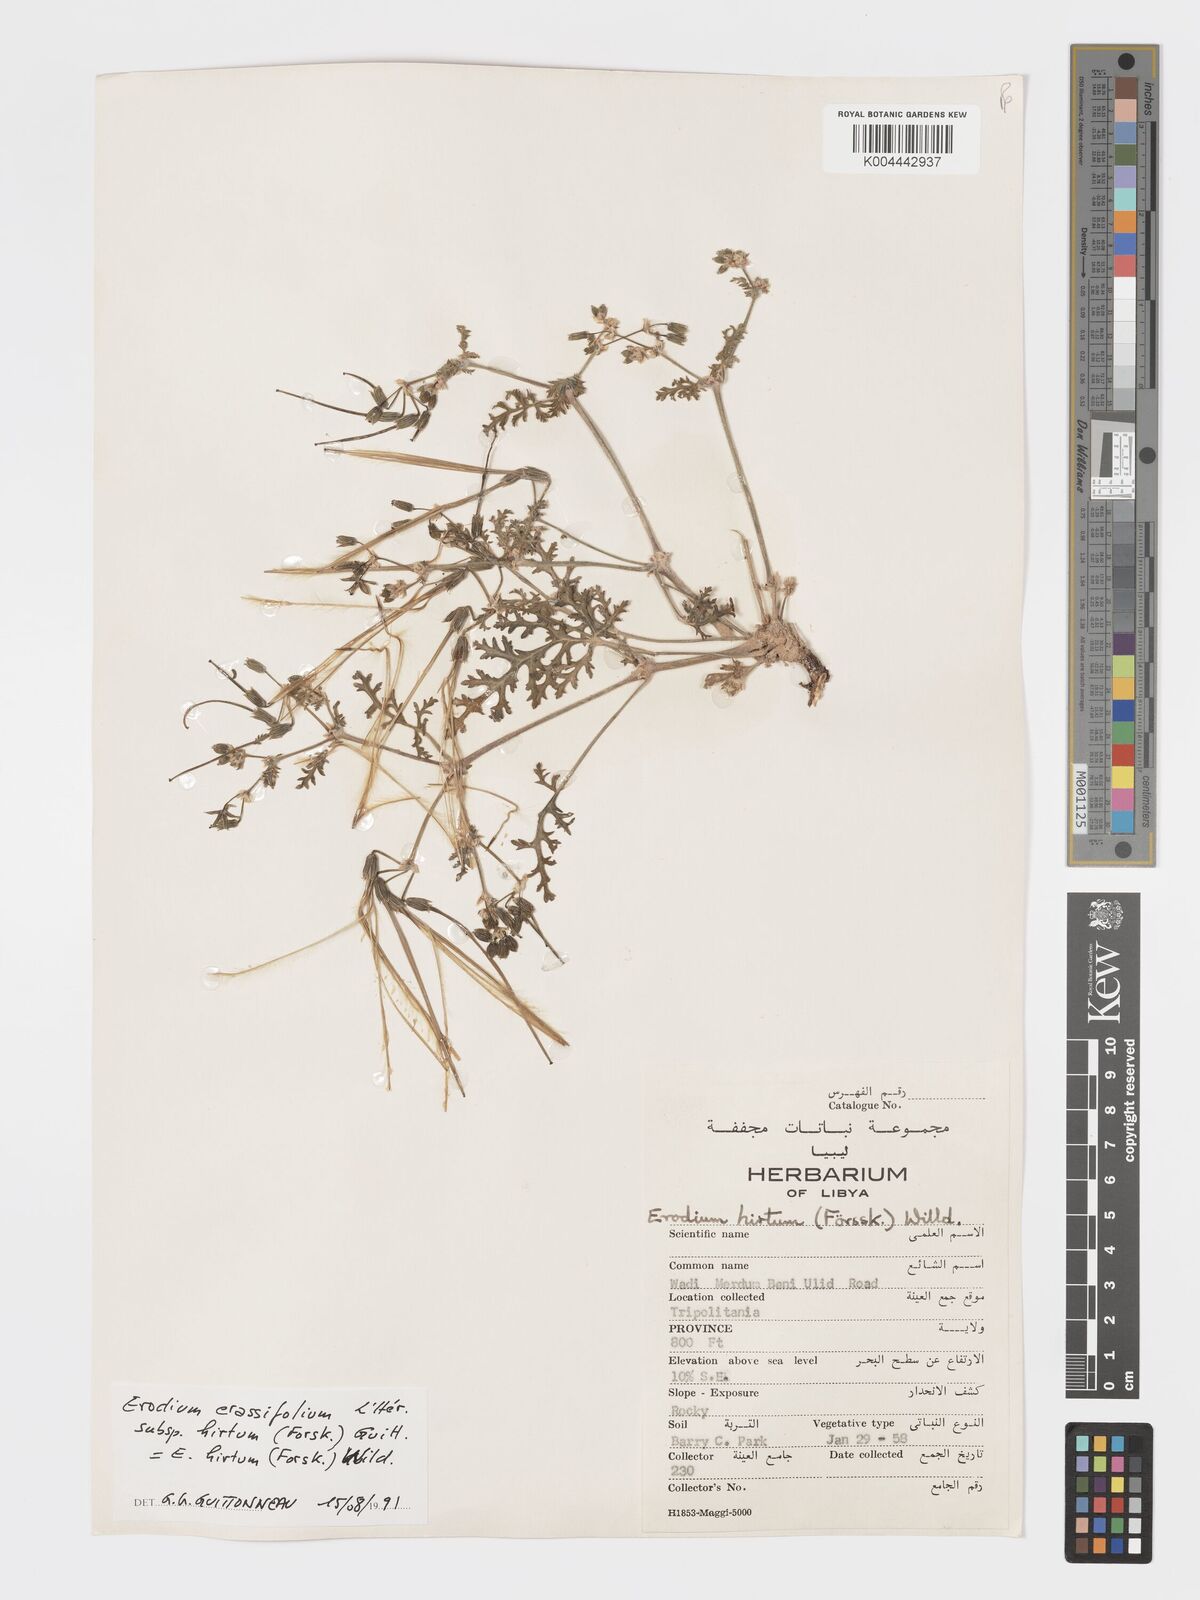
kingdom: Plantae
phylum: Tracheophyta
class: Magnoliopsida
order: Geraniales
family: Geraniaceae
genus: Erodium
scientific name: Erodium crassifolium
